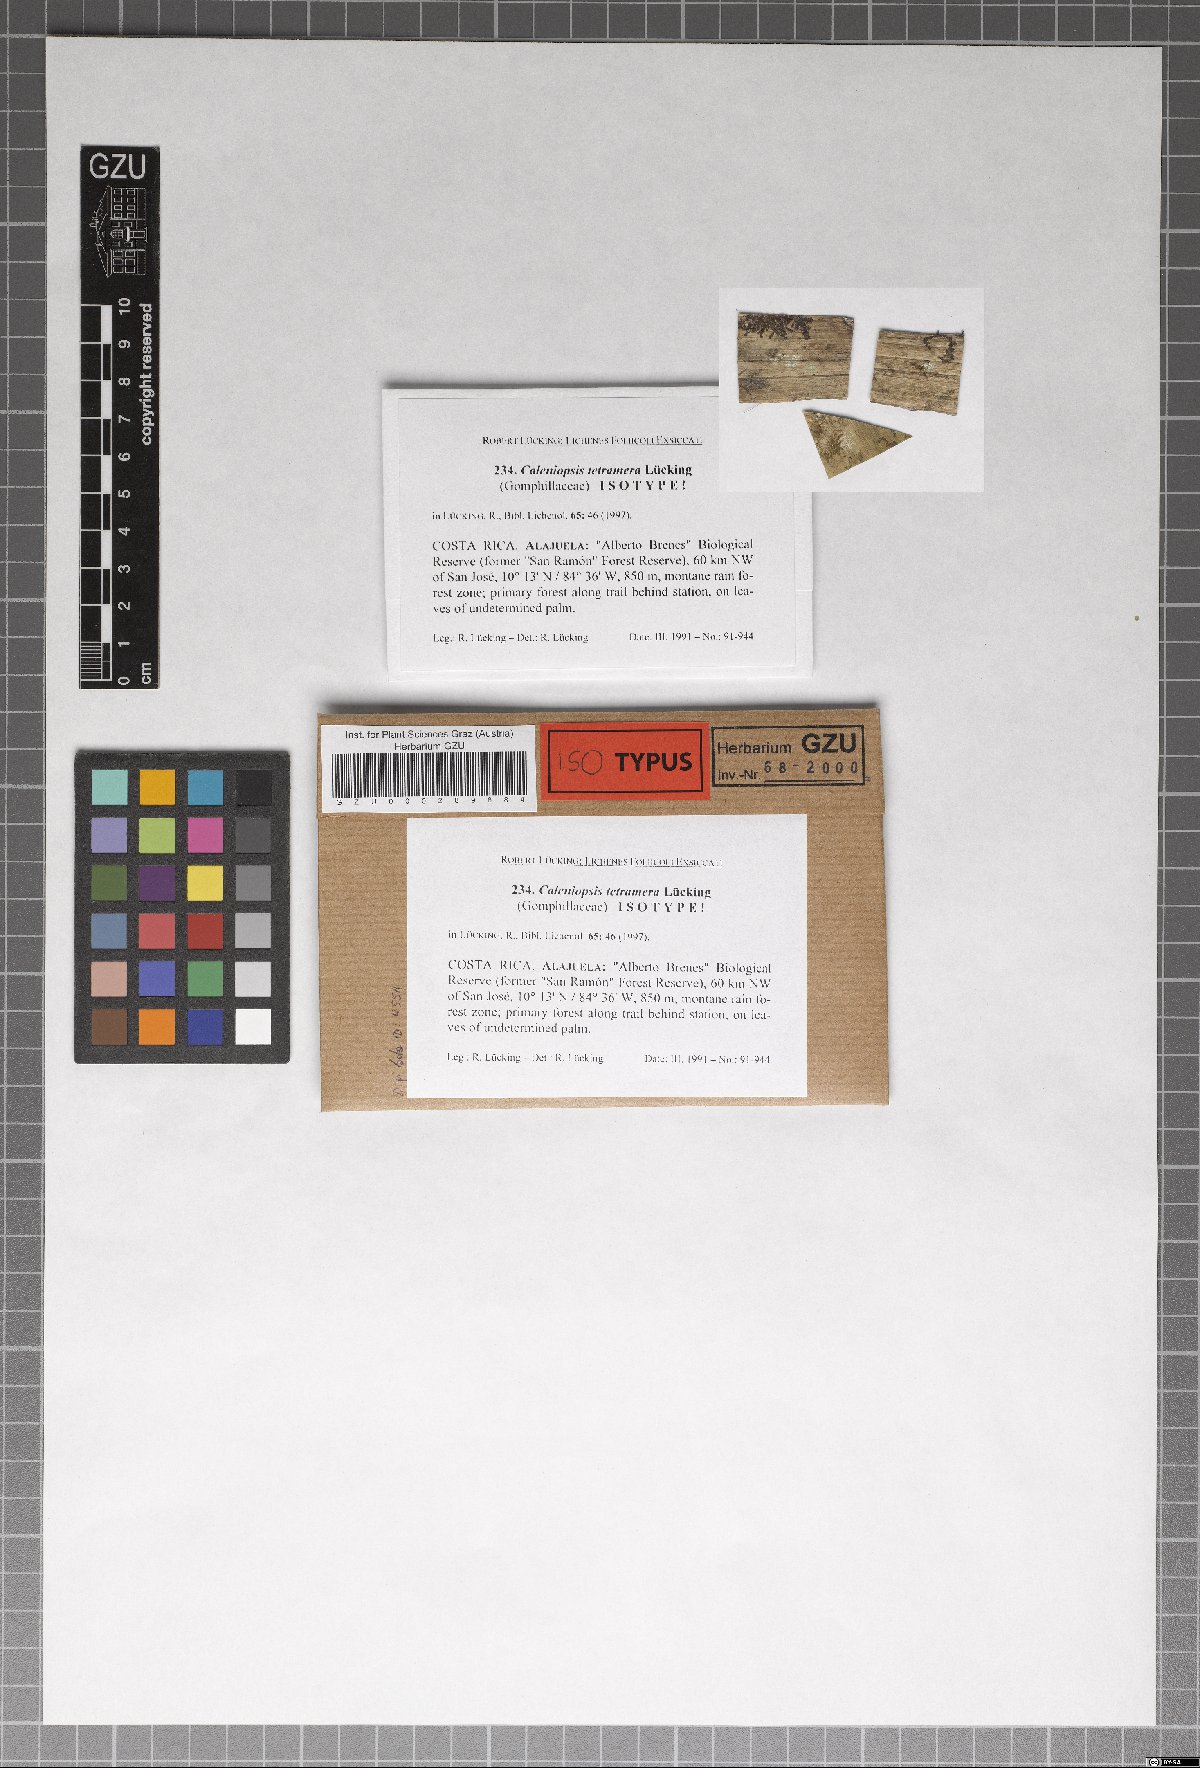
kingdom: Fungi
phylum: Ascomycota
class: Lecanoromycetes
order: Ostropales
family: Gomphillaceae
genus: Caleniopsis
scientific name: Caleniopsis tetramera
